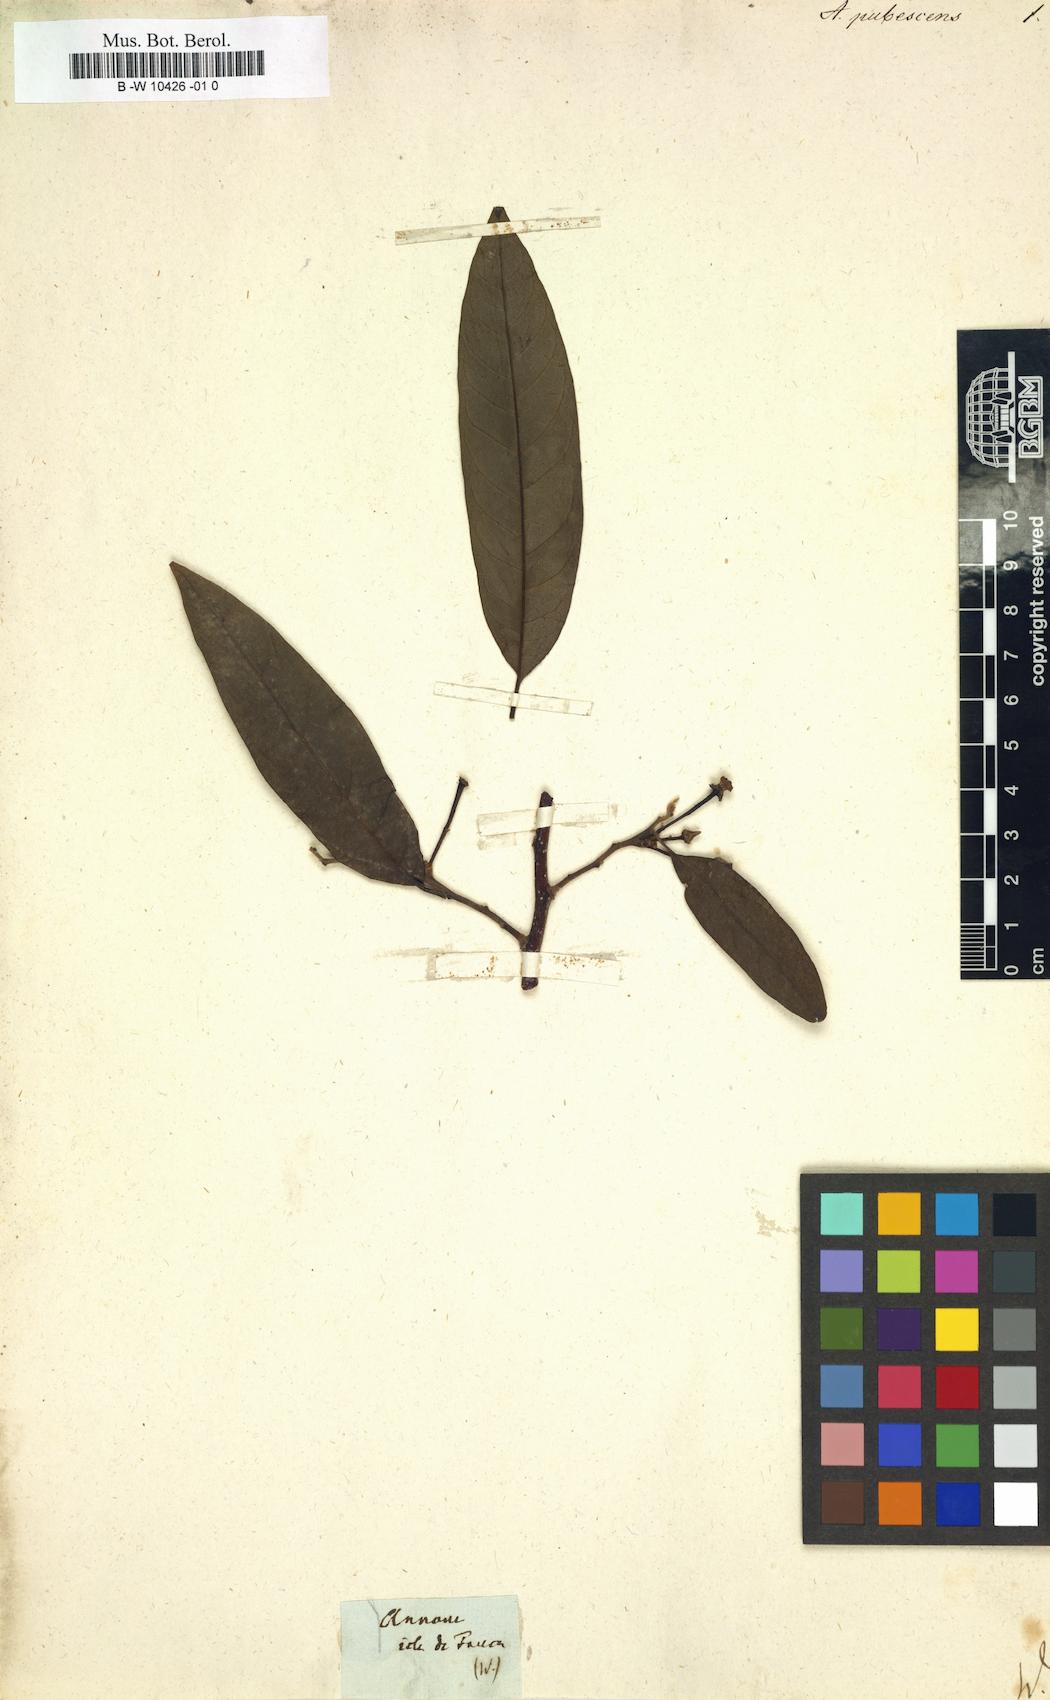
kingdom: Plantae
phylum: Tracheophyta
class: Magnoliopsida
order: Magnoliales
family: Annonaceae
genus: Annona
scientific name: Annona cherimola
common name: Cherimoya
